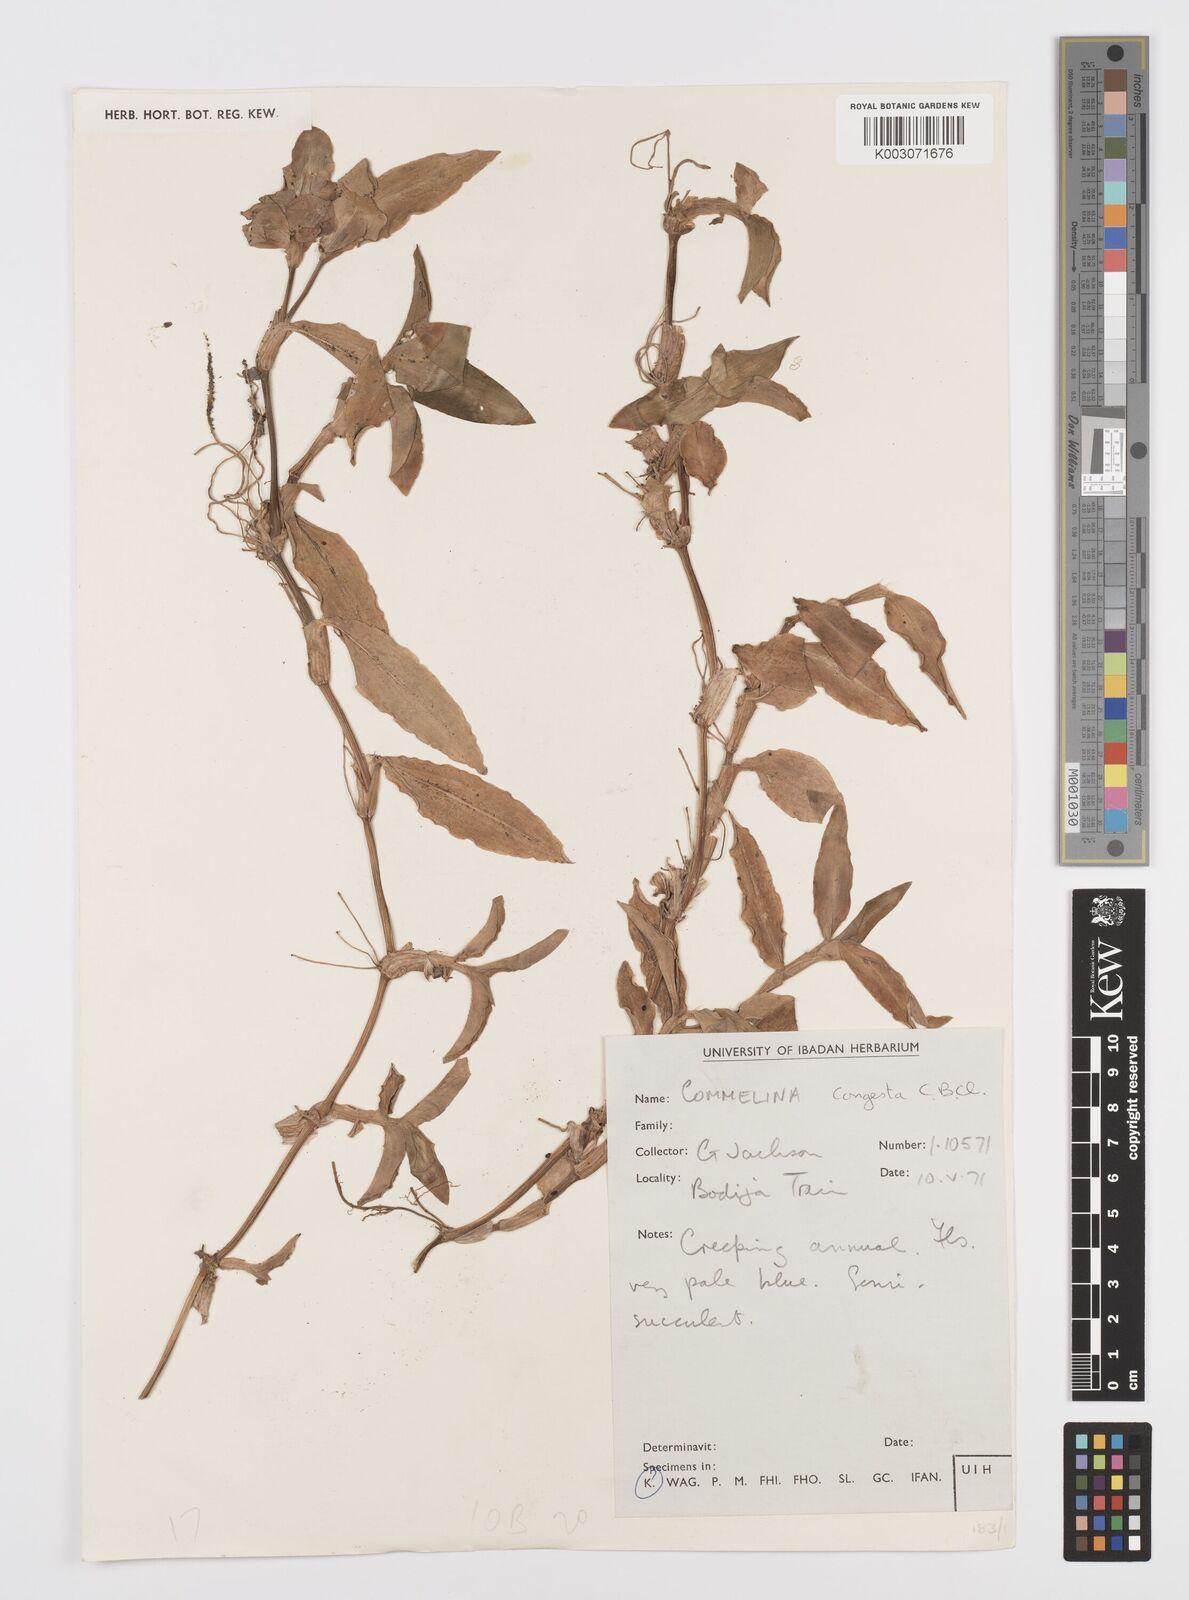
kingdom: Plantae
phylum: Tracheophyta
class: Liliopsida
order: Commelinales
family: Commelinaceae
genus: Commelina
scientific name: Commelina congesta
